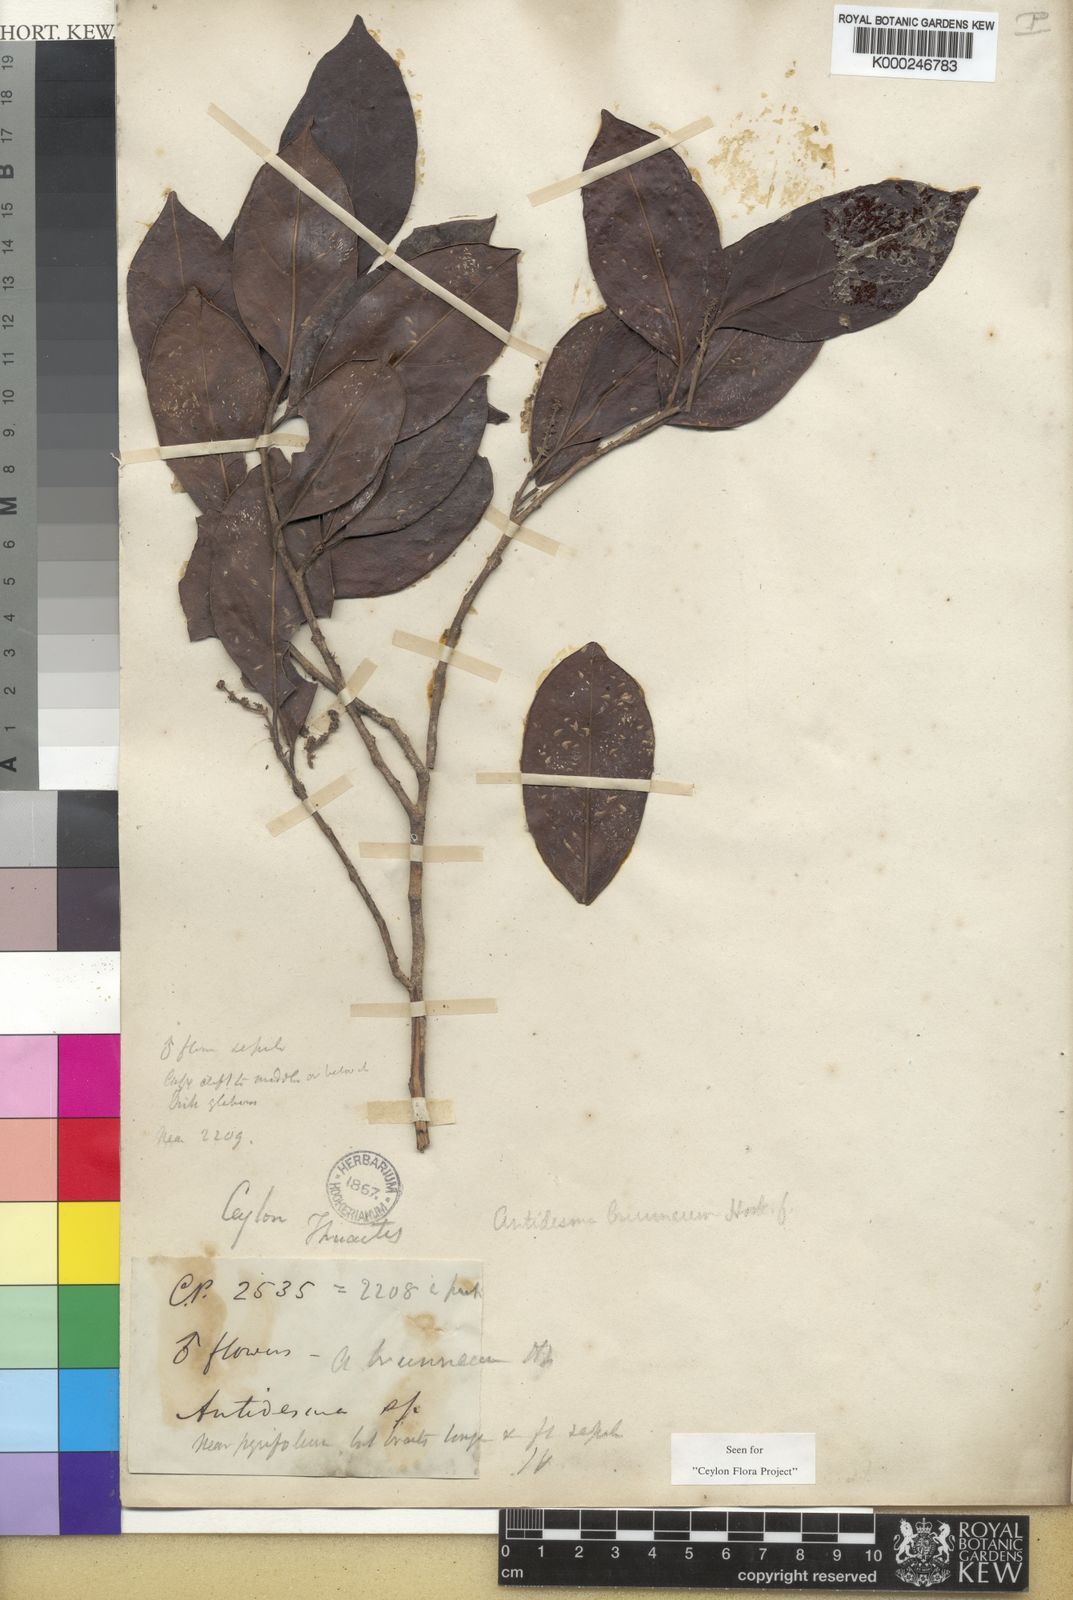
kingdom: Plantae
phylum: Tracheophyta
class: Magnoliopsida
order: Malpighiales
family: Phyllanthaceae
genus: Antidesma
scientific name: Antidesma
